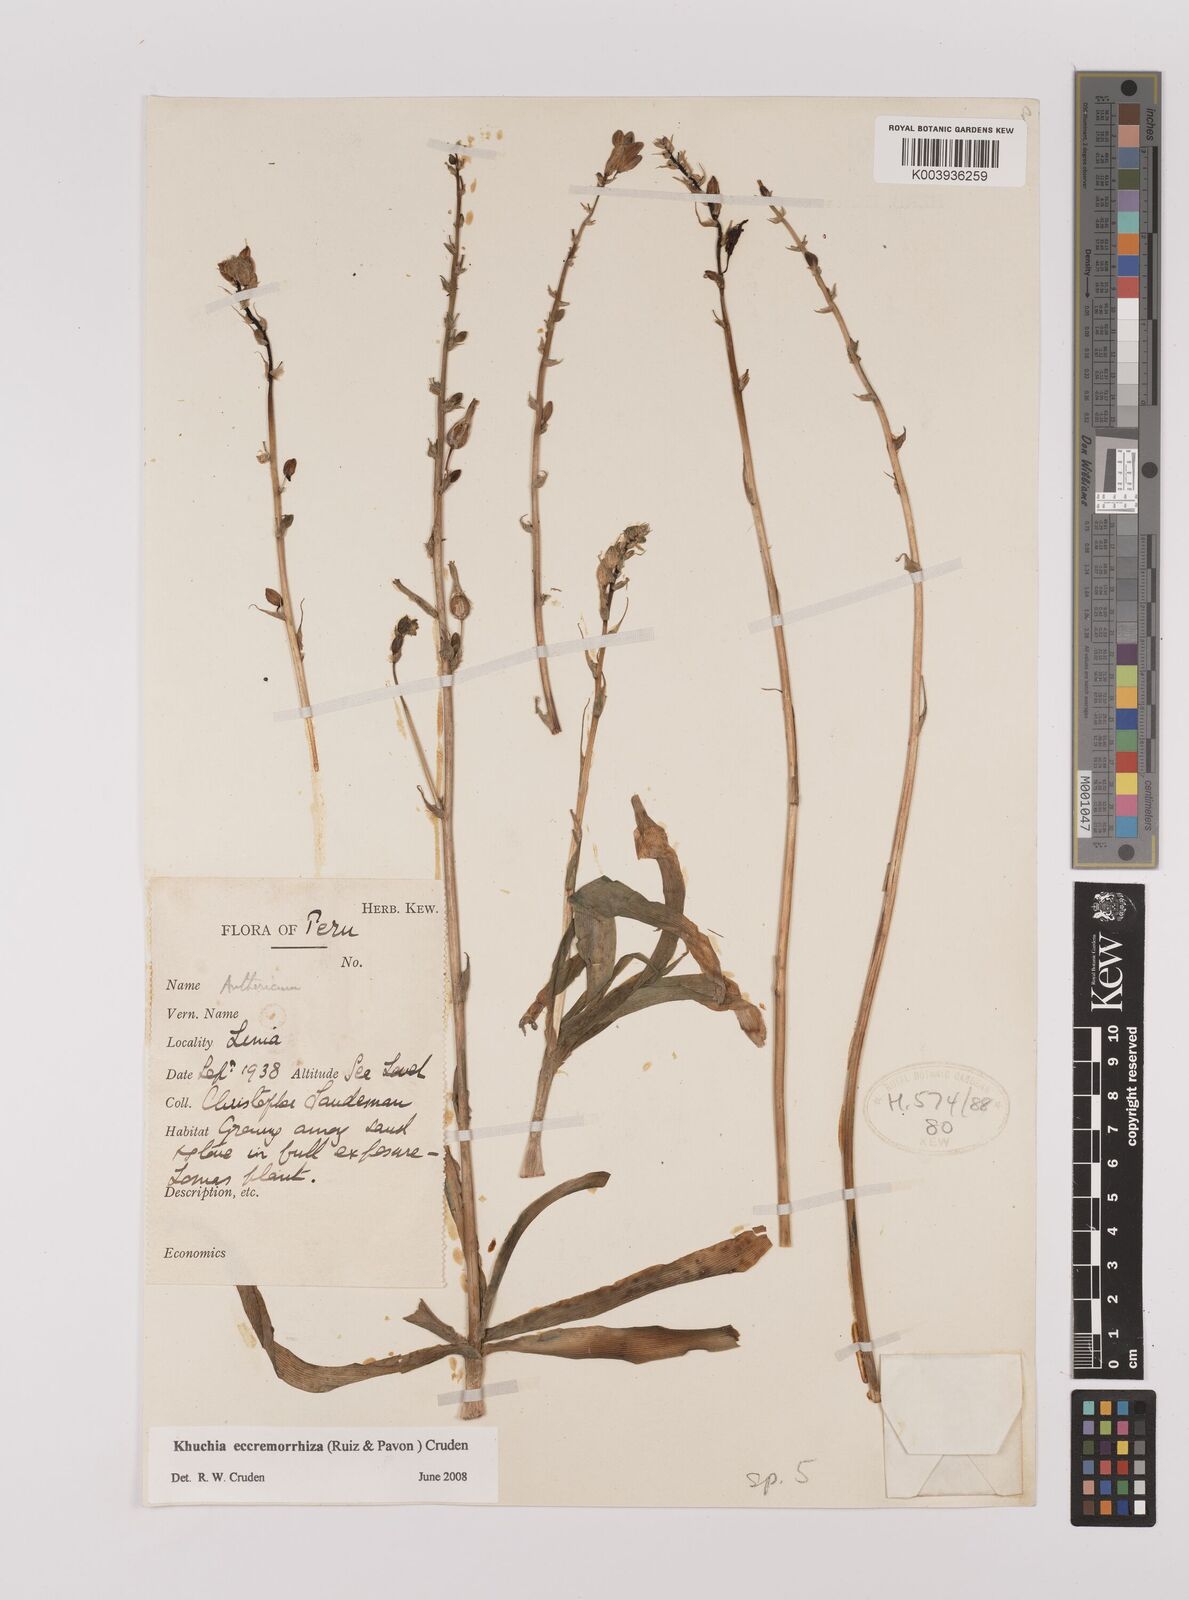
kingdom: Plantae
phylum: Tracheophyta
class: Liliopsida
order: Asparagales
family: Asparagaceae
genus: Echeandia
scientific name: Echeandia
